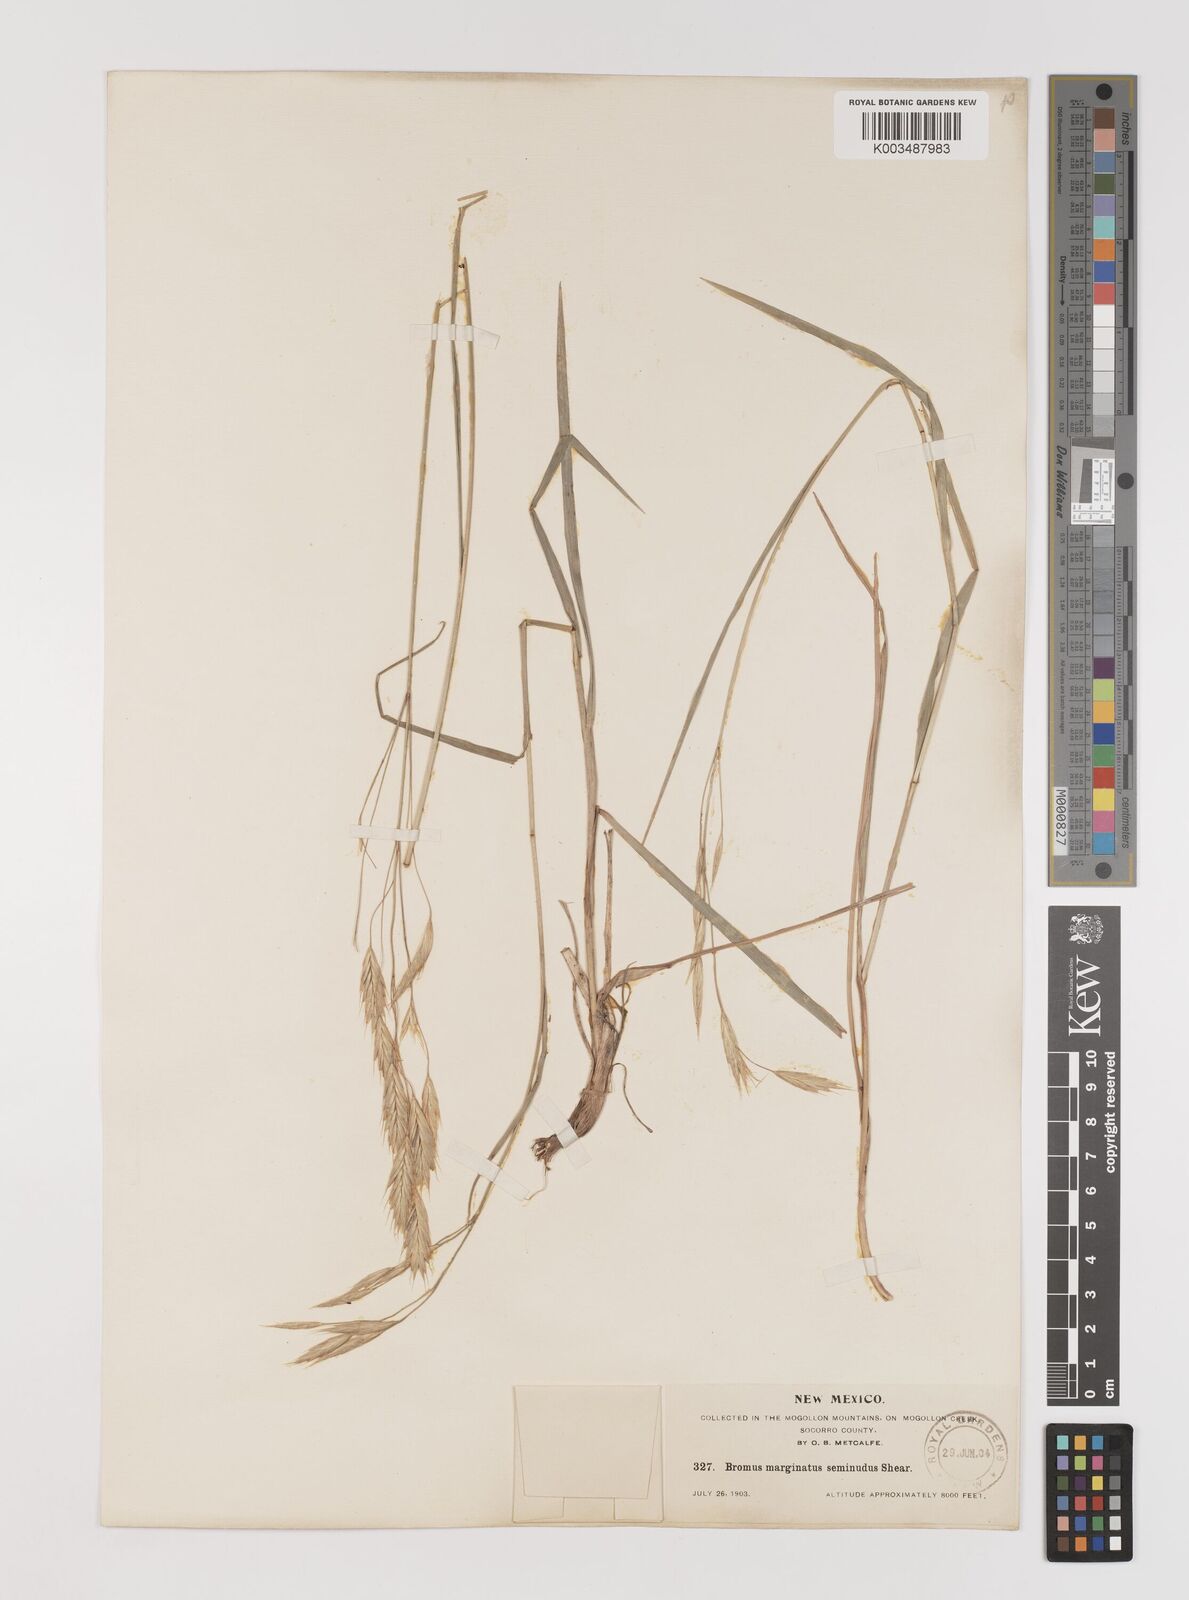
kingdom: Plantae
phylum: Tracheophyta
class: Liliopsida
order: Poales
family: Poaceae
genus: Bromus
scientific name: Bromus marginatus
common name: Western brome
